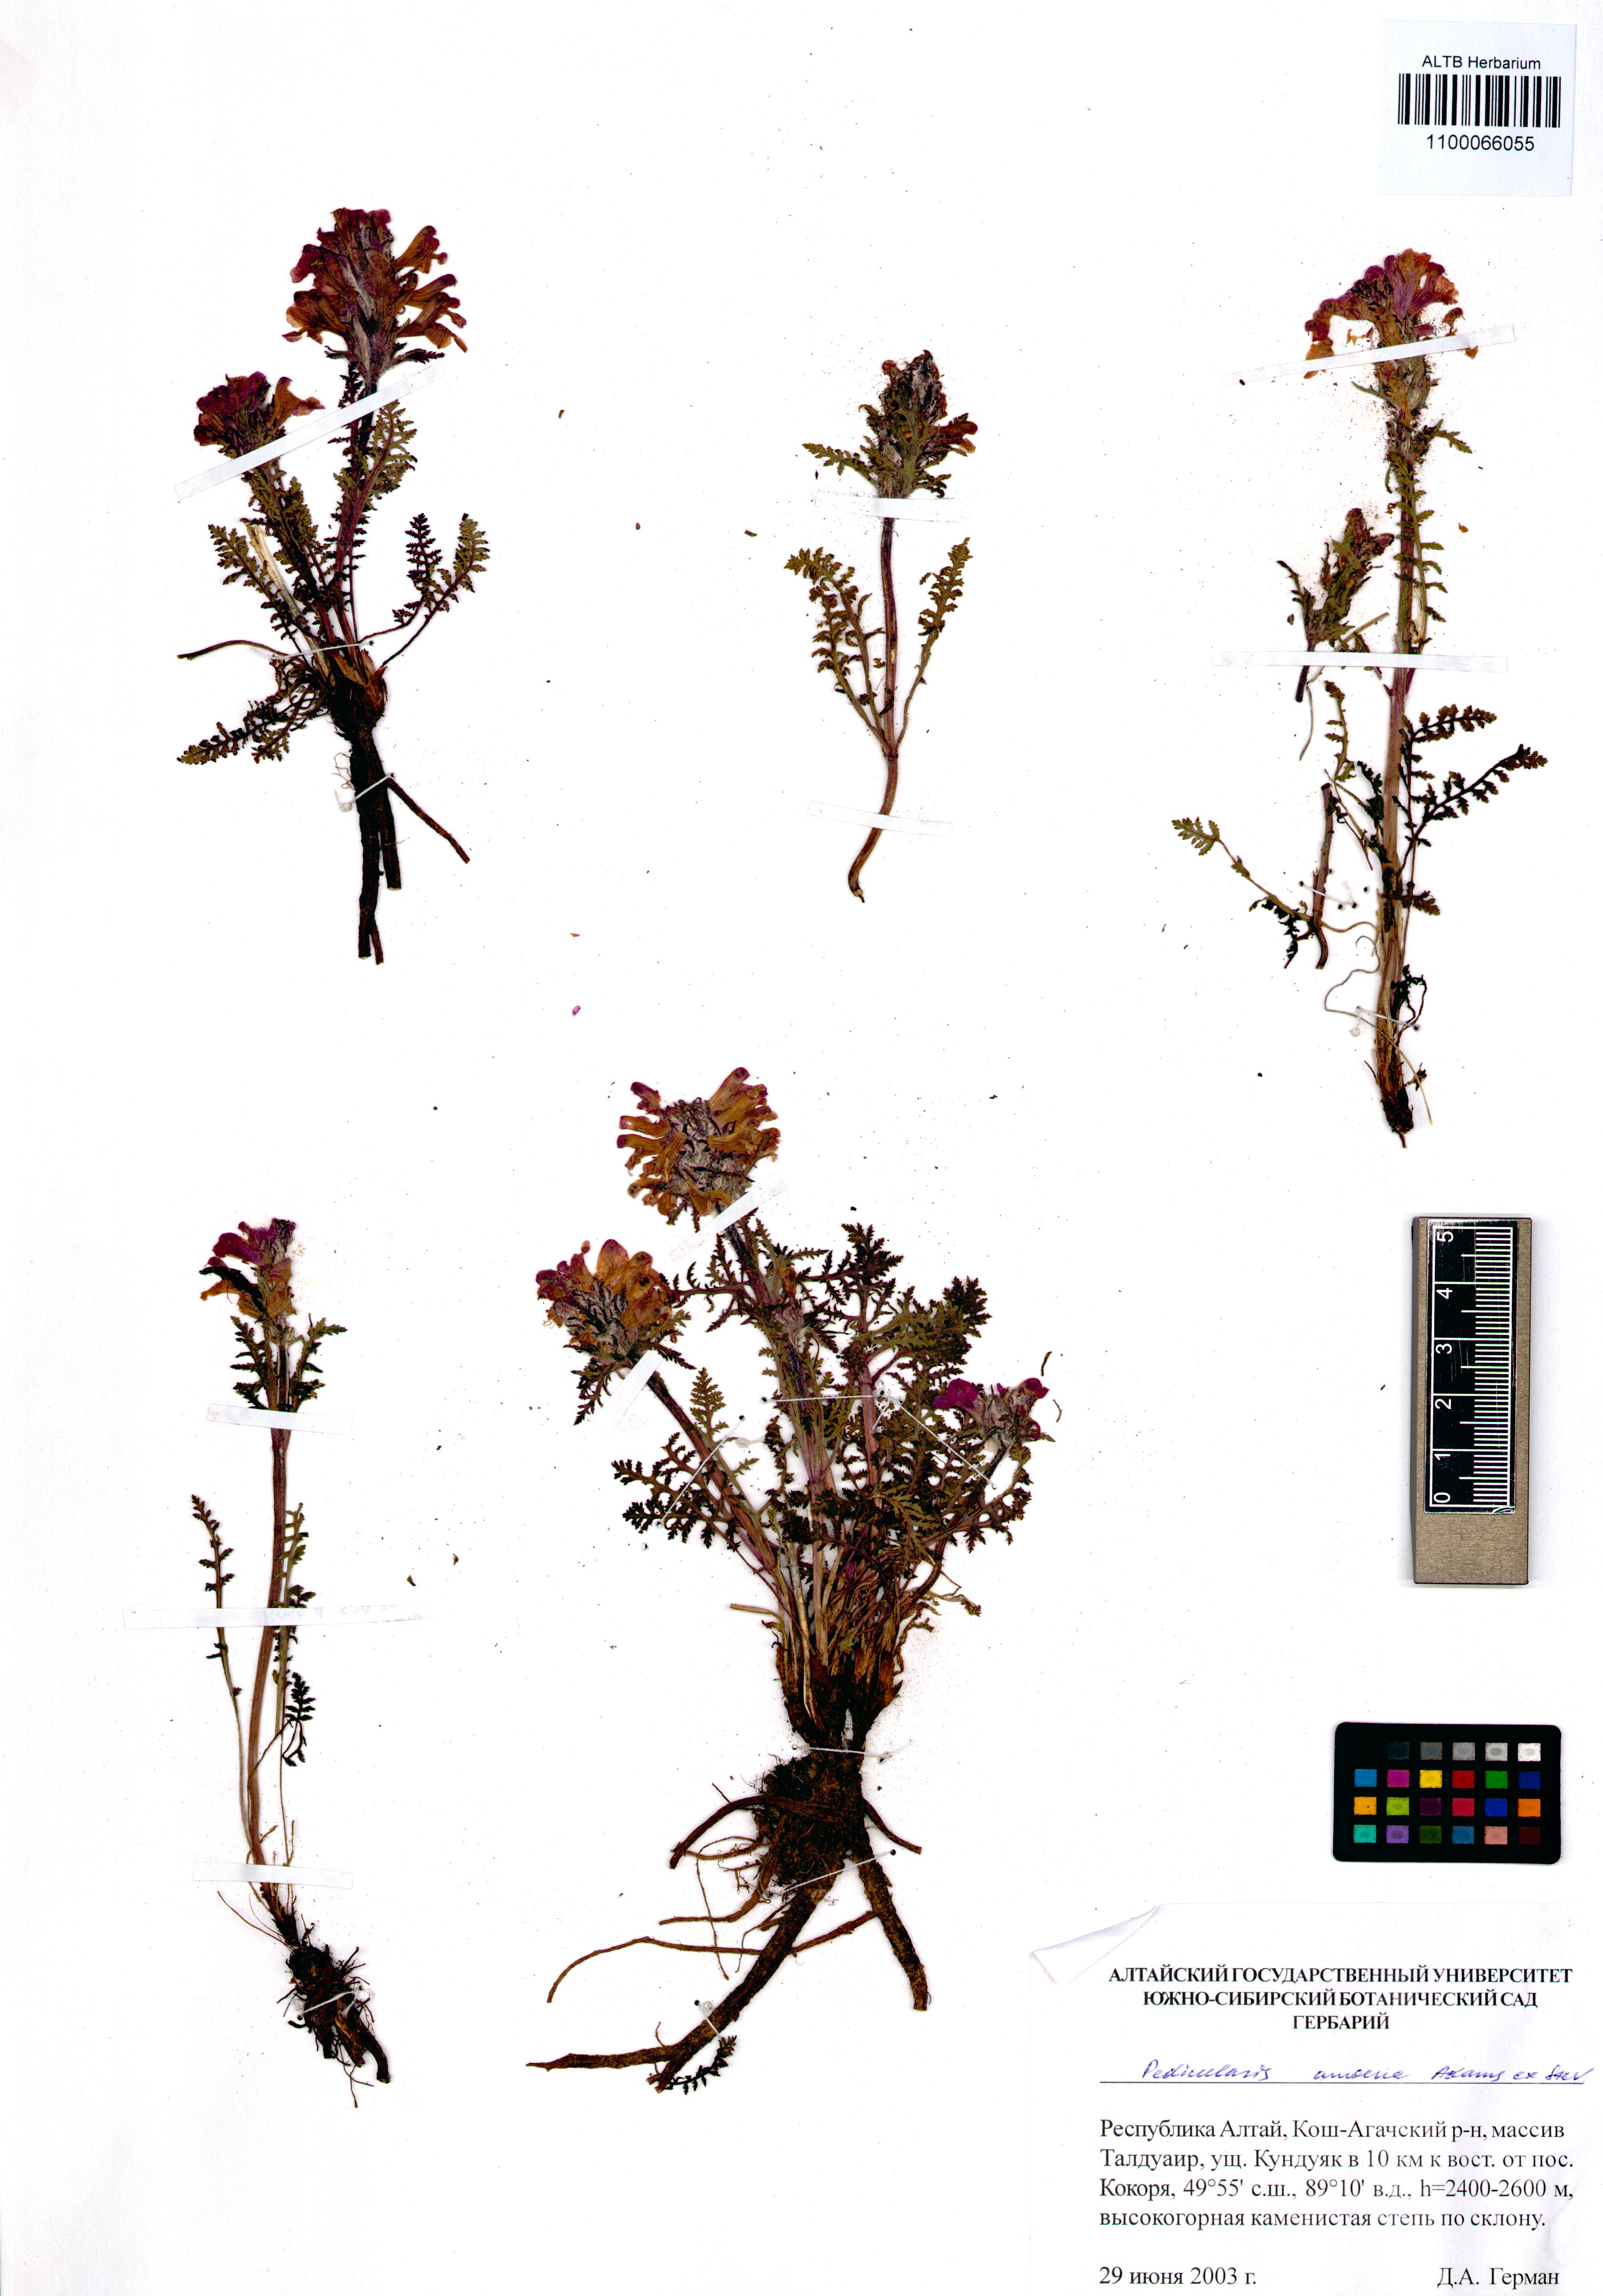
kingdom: Plantae
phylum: Tracheophyta
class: Magnoliopsida
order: Lamiales
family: Orobanchaceae
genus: Pedicularis
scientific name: Pedicularis amoena
